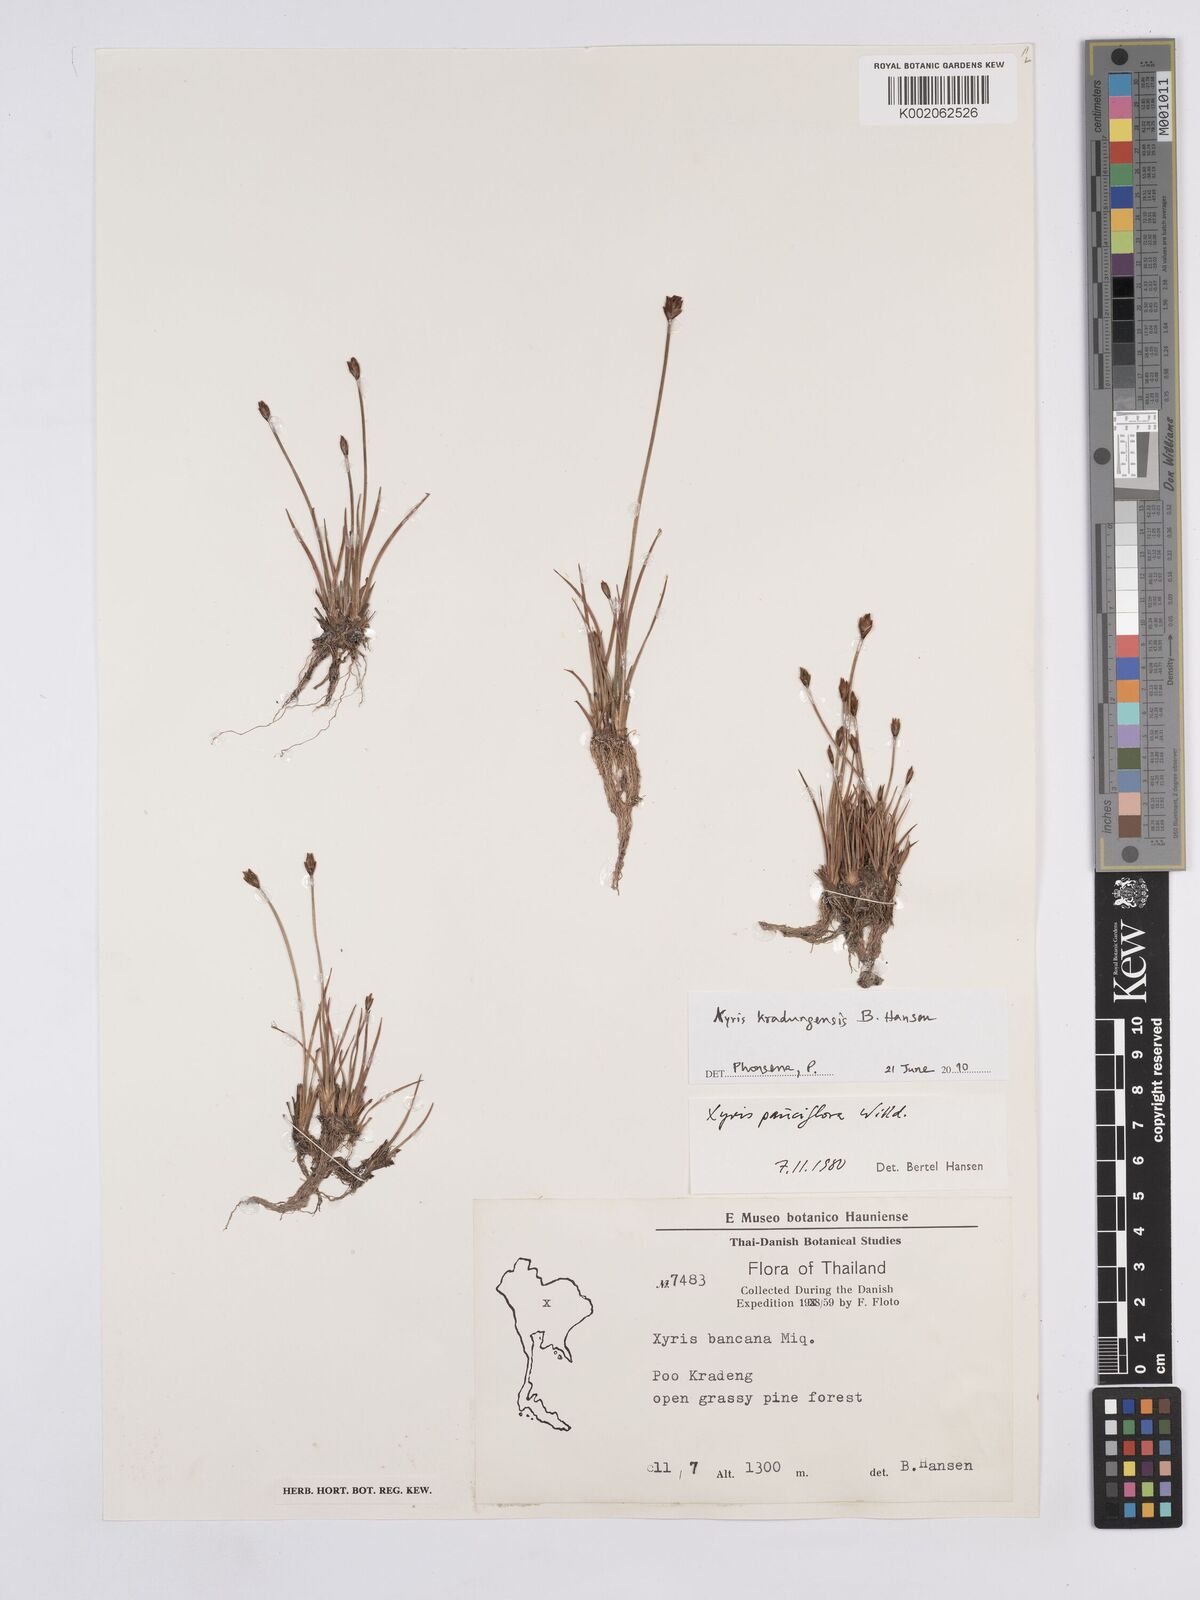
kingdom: Plantae
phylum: Tracheophyta
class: Liliopsida
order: Poales
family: Xyridaceae
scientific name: Xyridaceae
